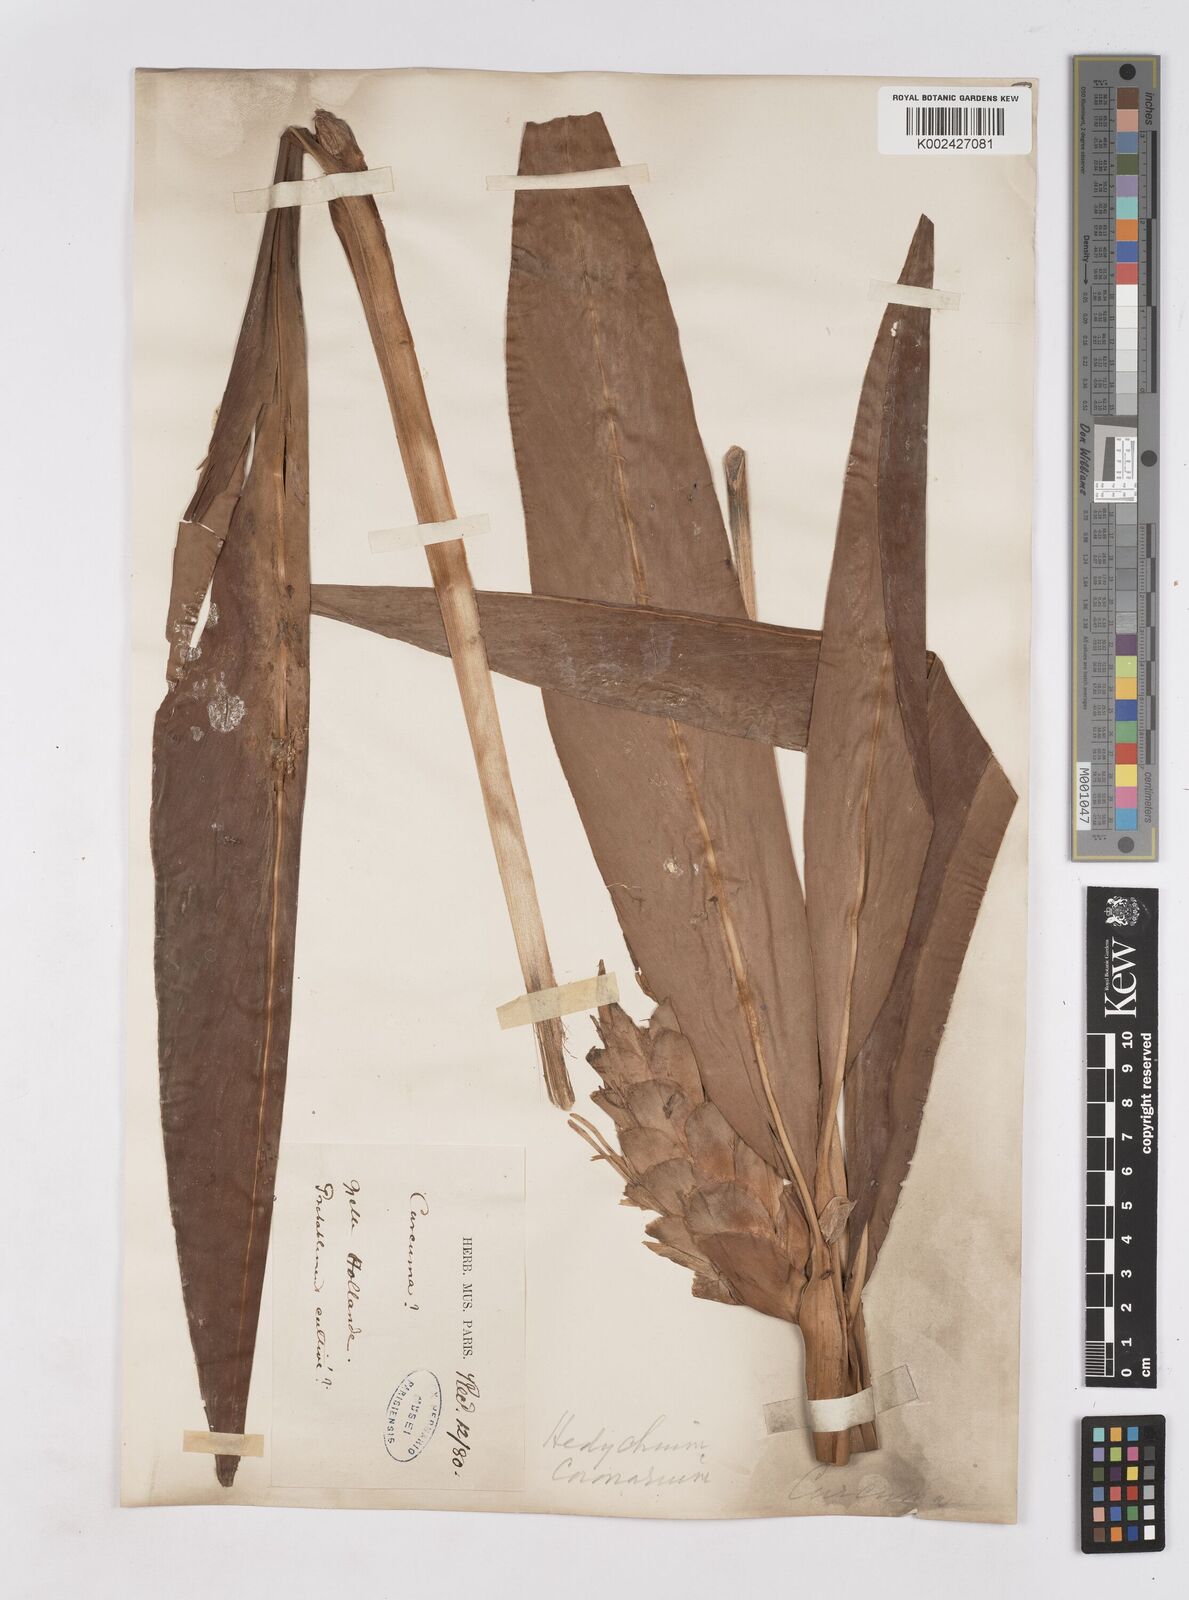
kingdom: Plantae
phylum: Tracheophyta
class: Liliopsida
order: Zingiberales
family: Zingiberaceae
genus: Hedychium
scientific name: Hedychium coronarium
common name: White garland-lily
